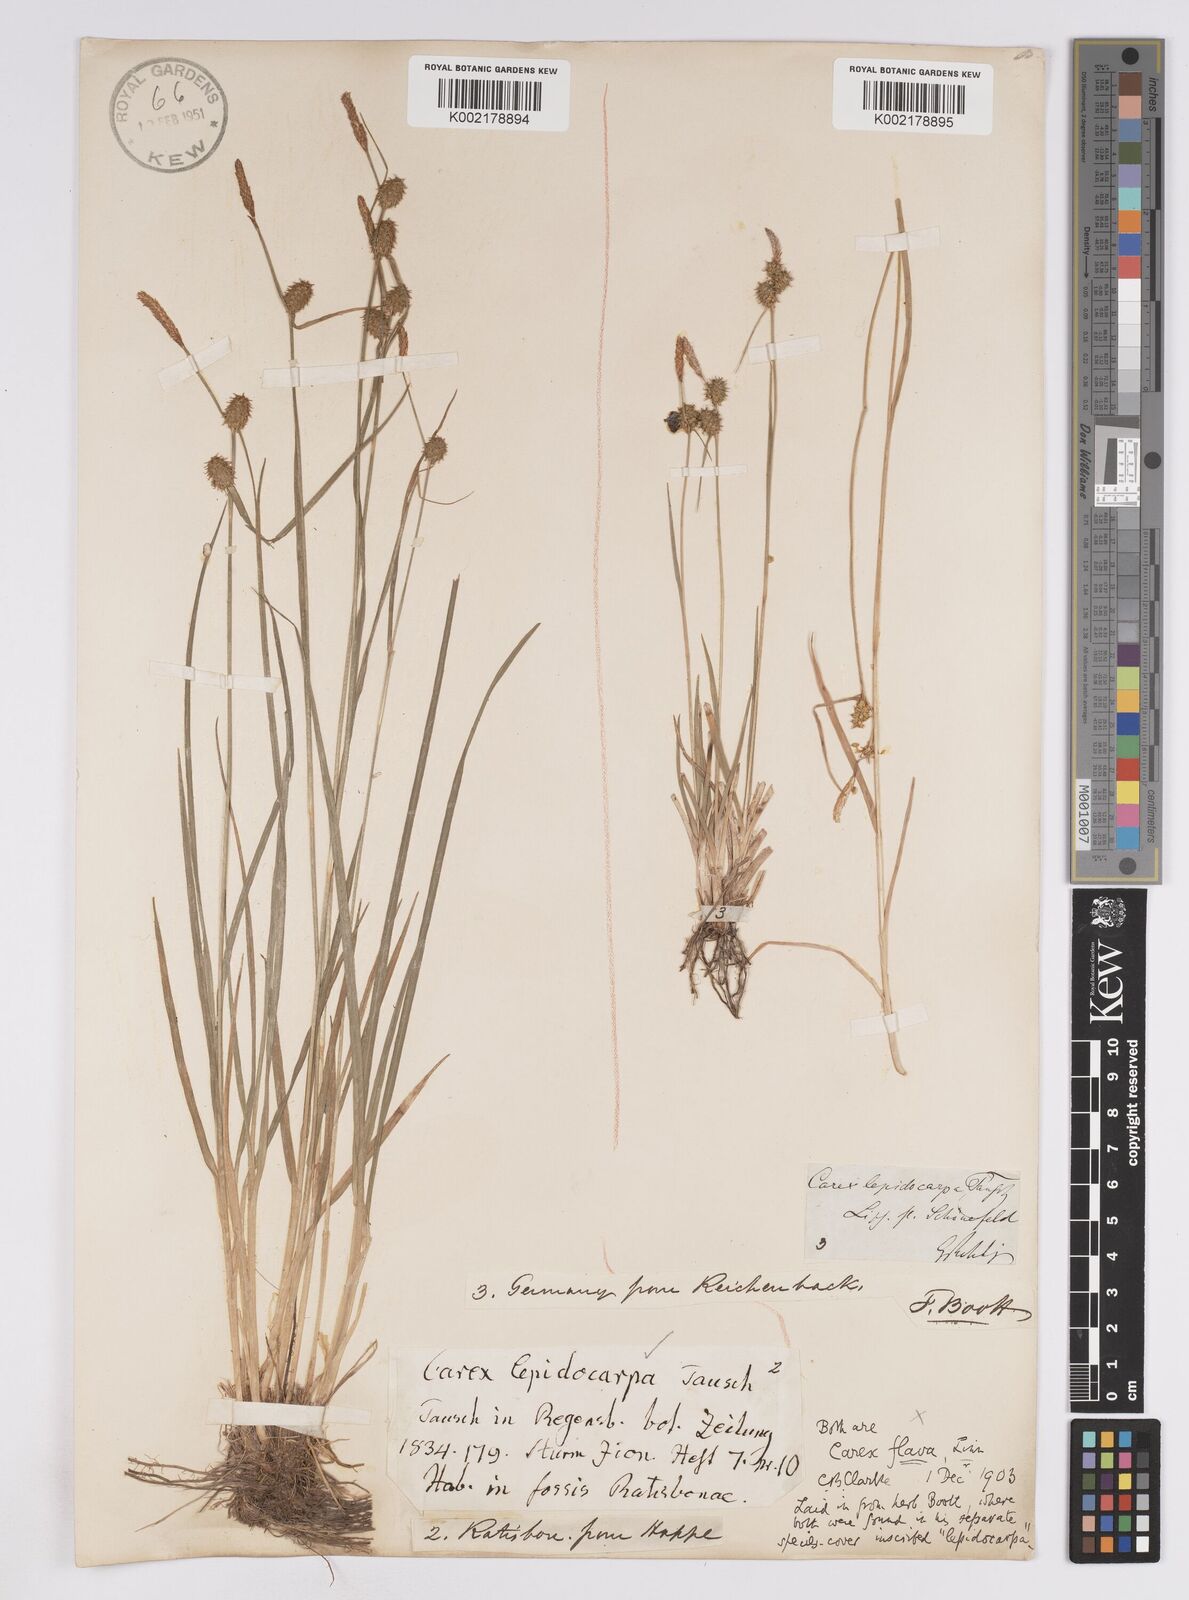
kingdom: Plantae
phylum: Tracheophyta
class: Liliopsida
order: Poales
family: Cyperaceae
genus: Carex
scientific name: Carex lepidocarpa
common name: Long-stalked yellow-sedge
